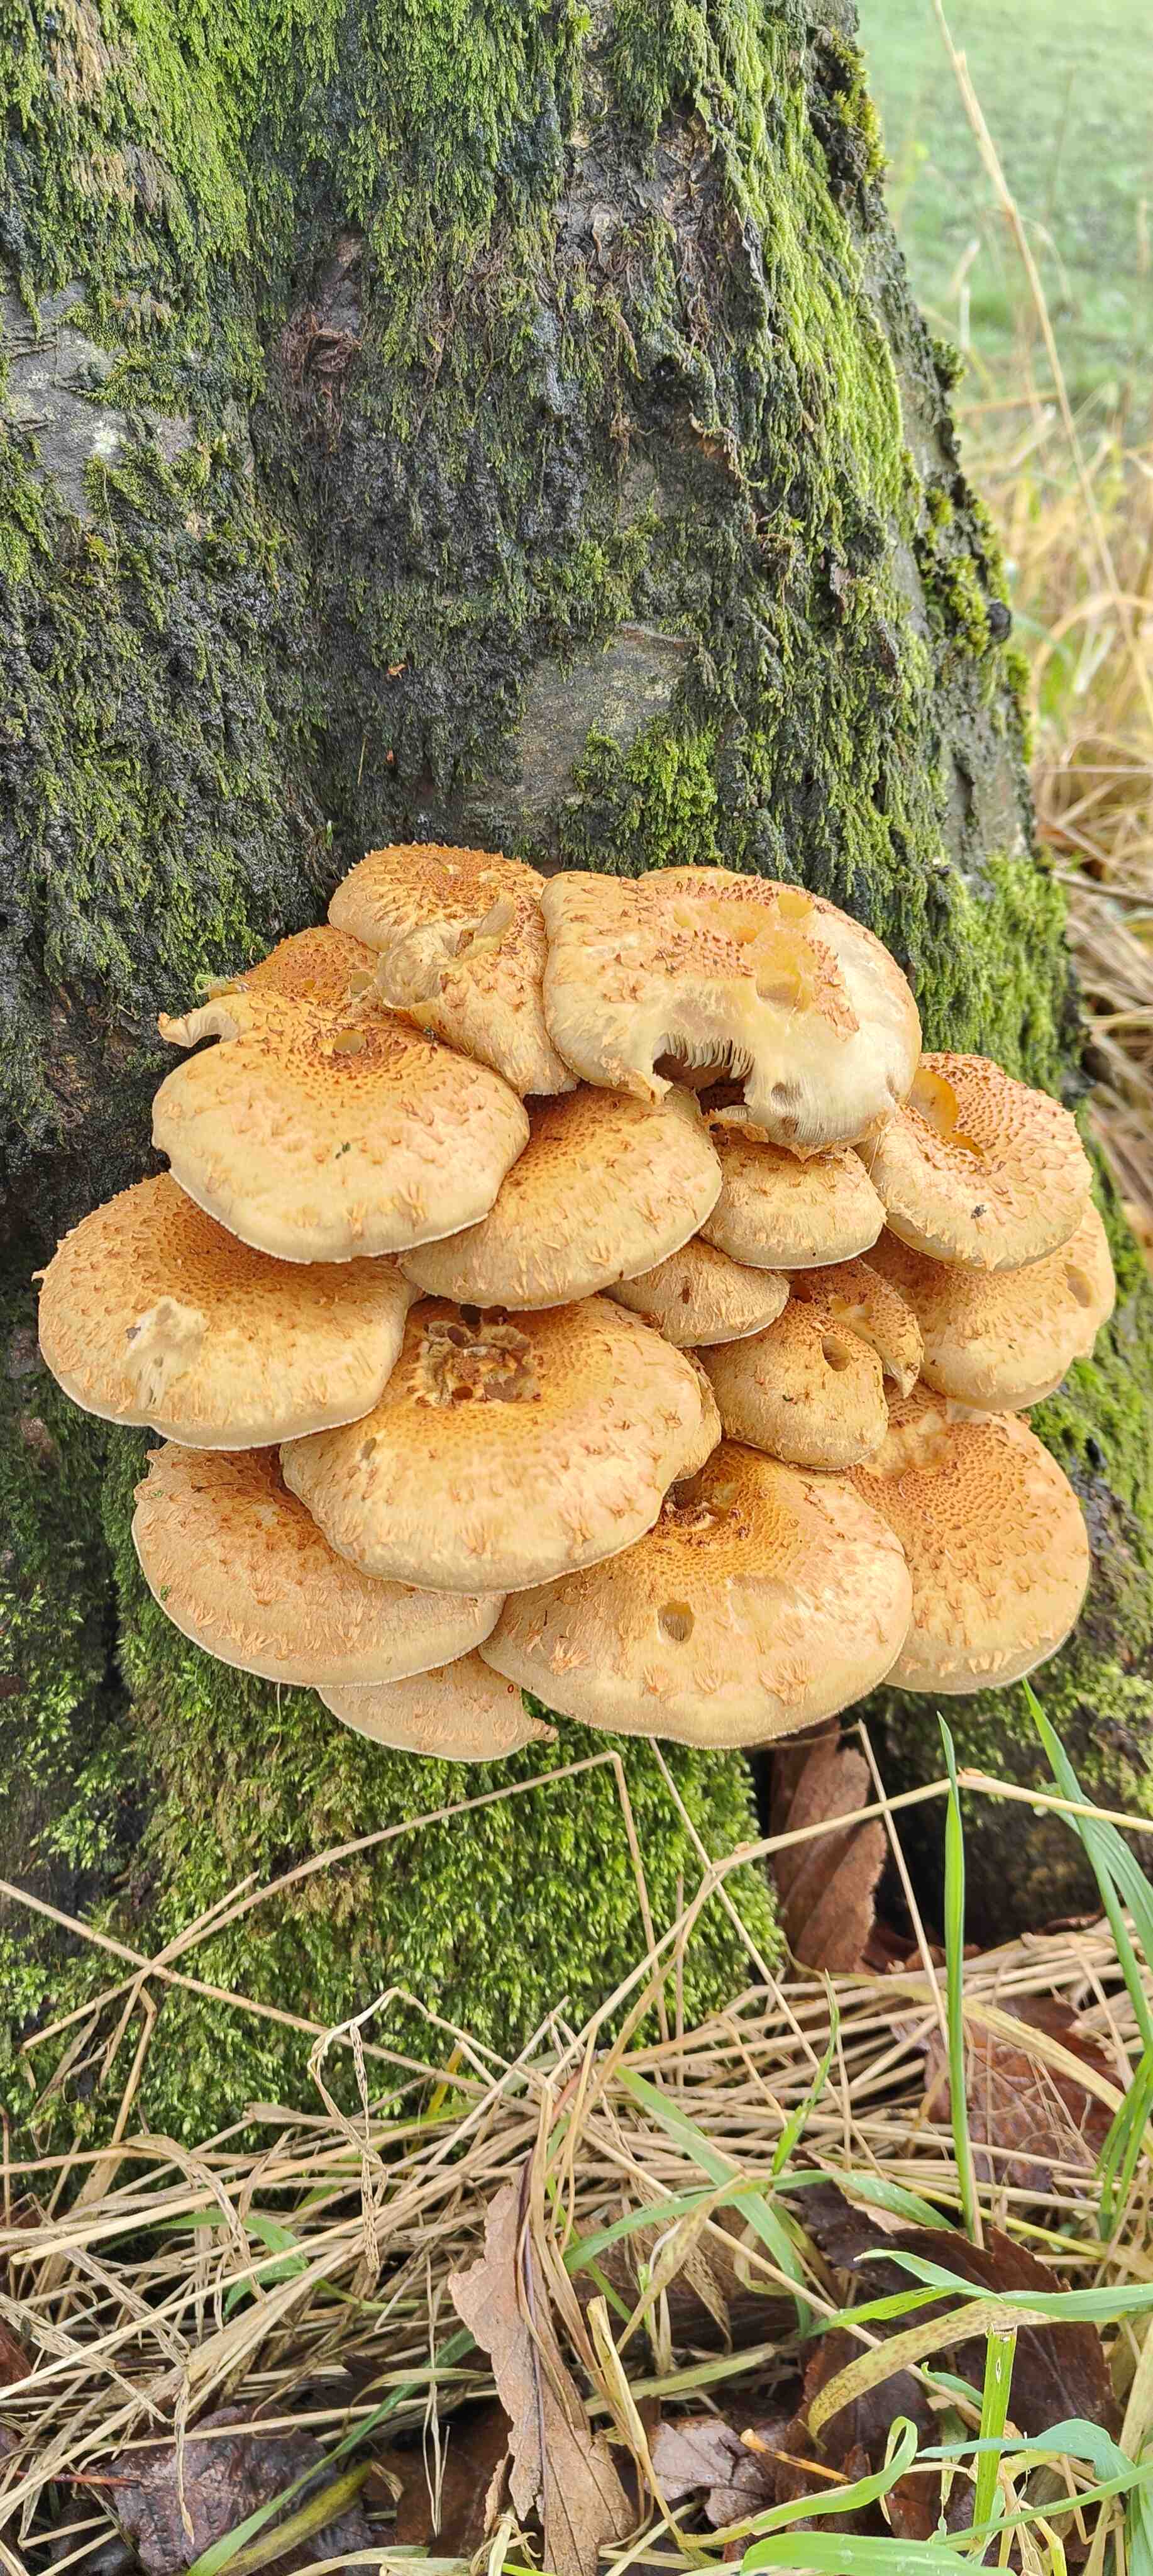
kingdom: Fungi
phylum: Basidiomycota
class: Agaricomycetes
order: Agaricales
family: Strophariaceae
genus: Pholiota
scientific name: Pholiota squarrosa
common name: krumskællet skælhat
